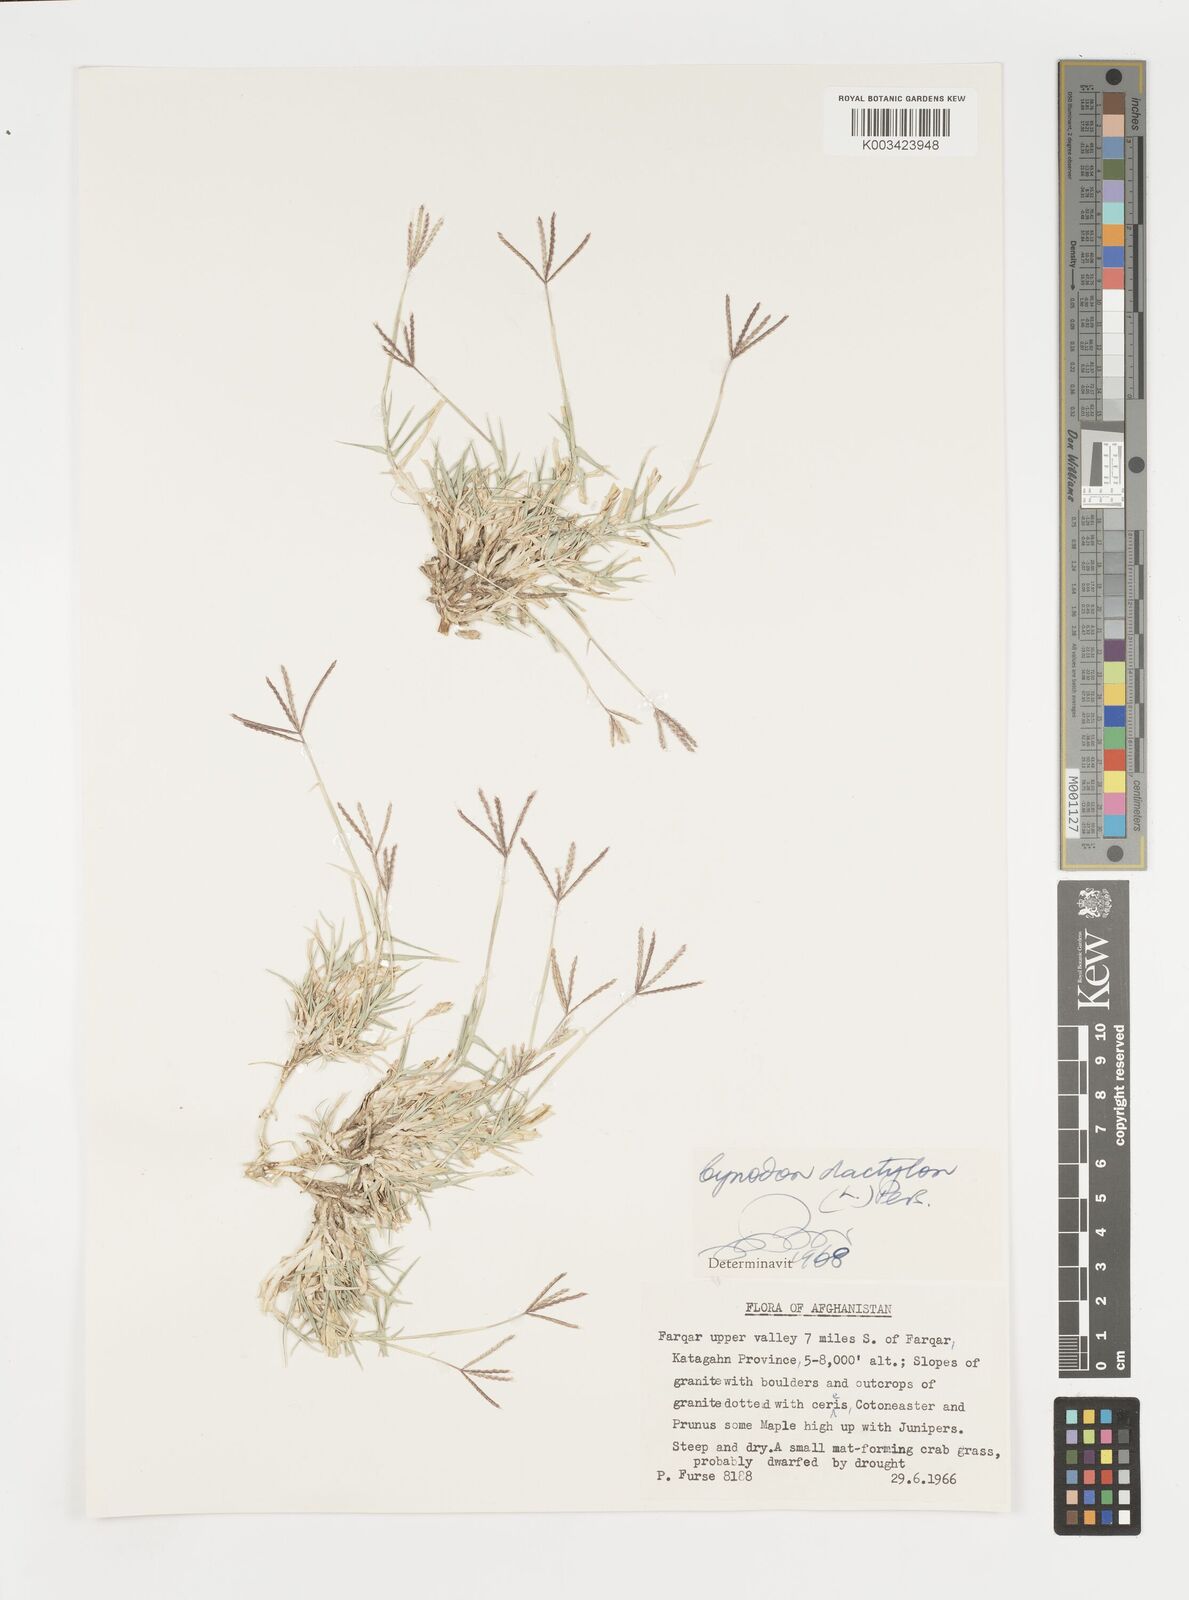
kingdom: Plantae
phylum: Tracheophyta
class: Liliopsida
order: Poales
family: Poaceae
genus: Cynodon
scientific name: Cynodon dactylon
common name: Bermuda grass
